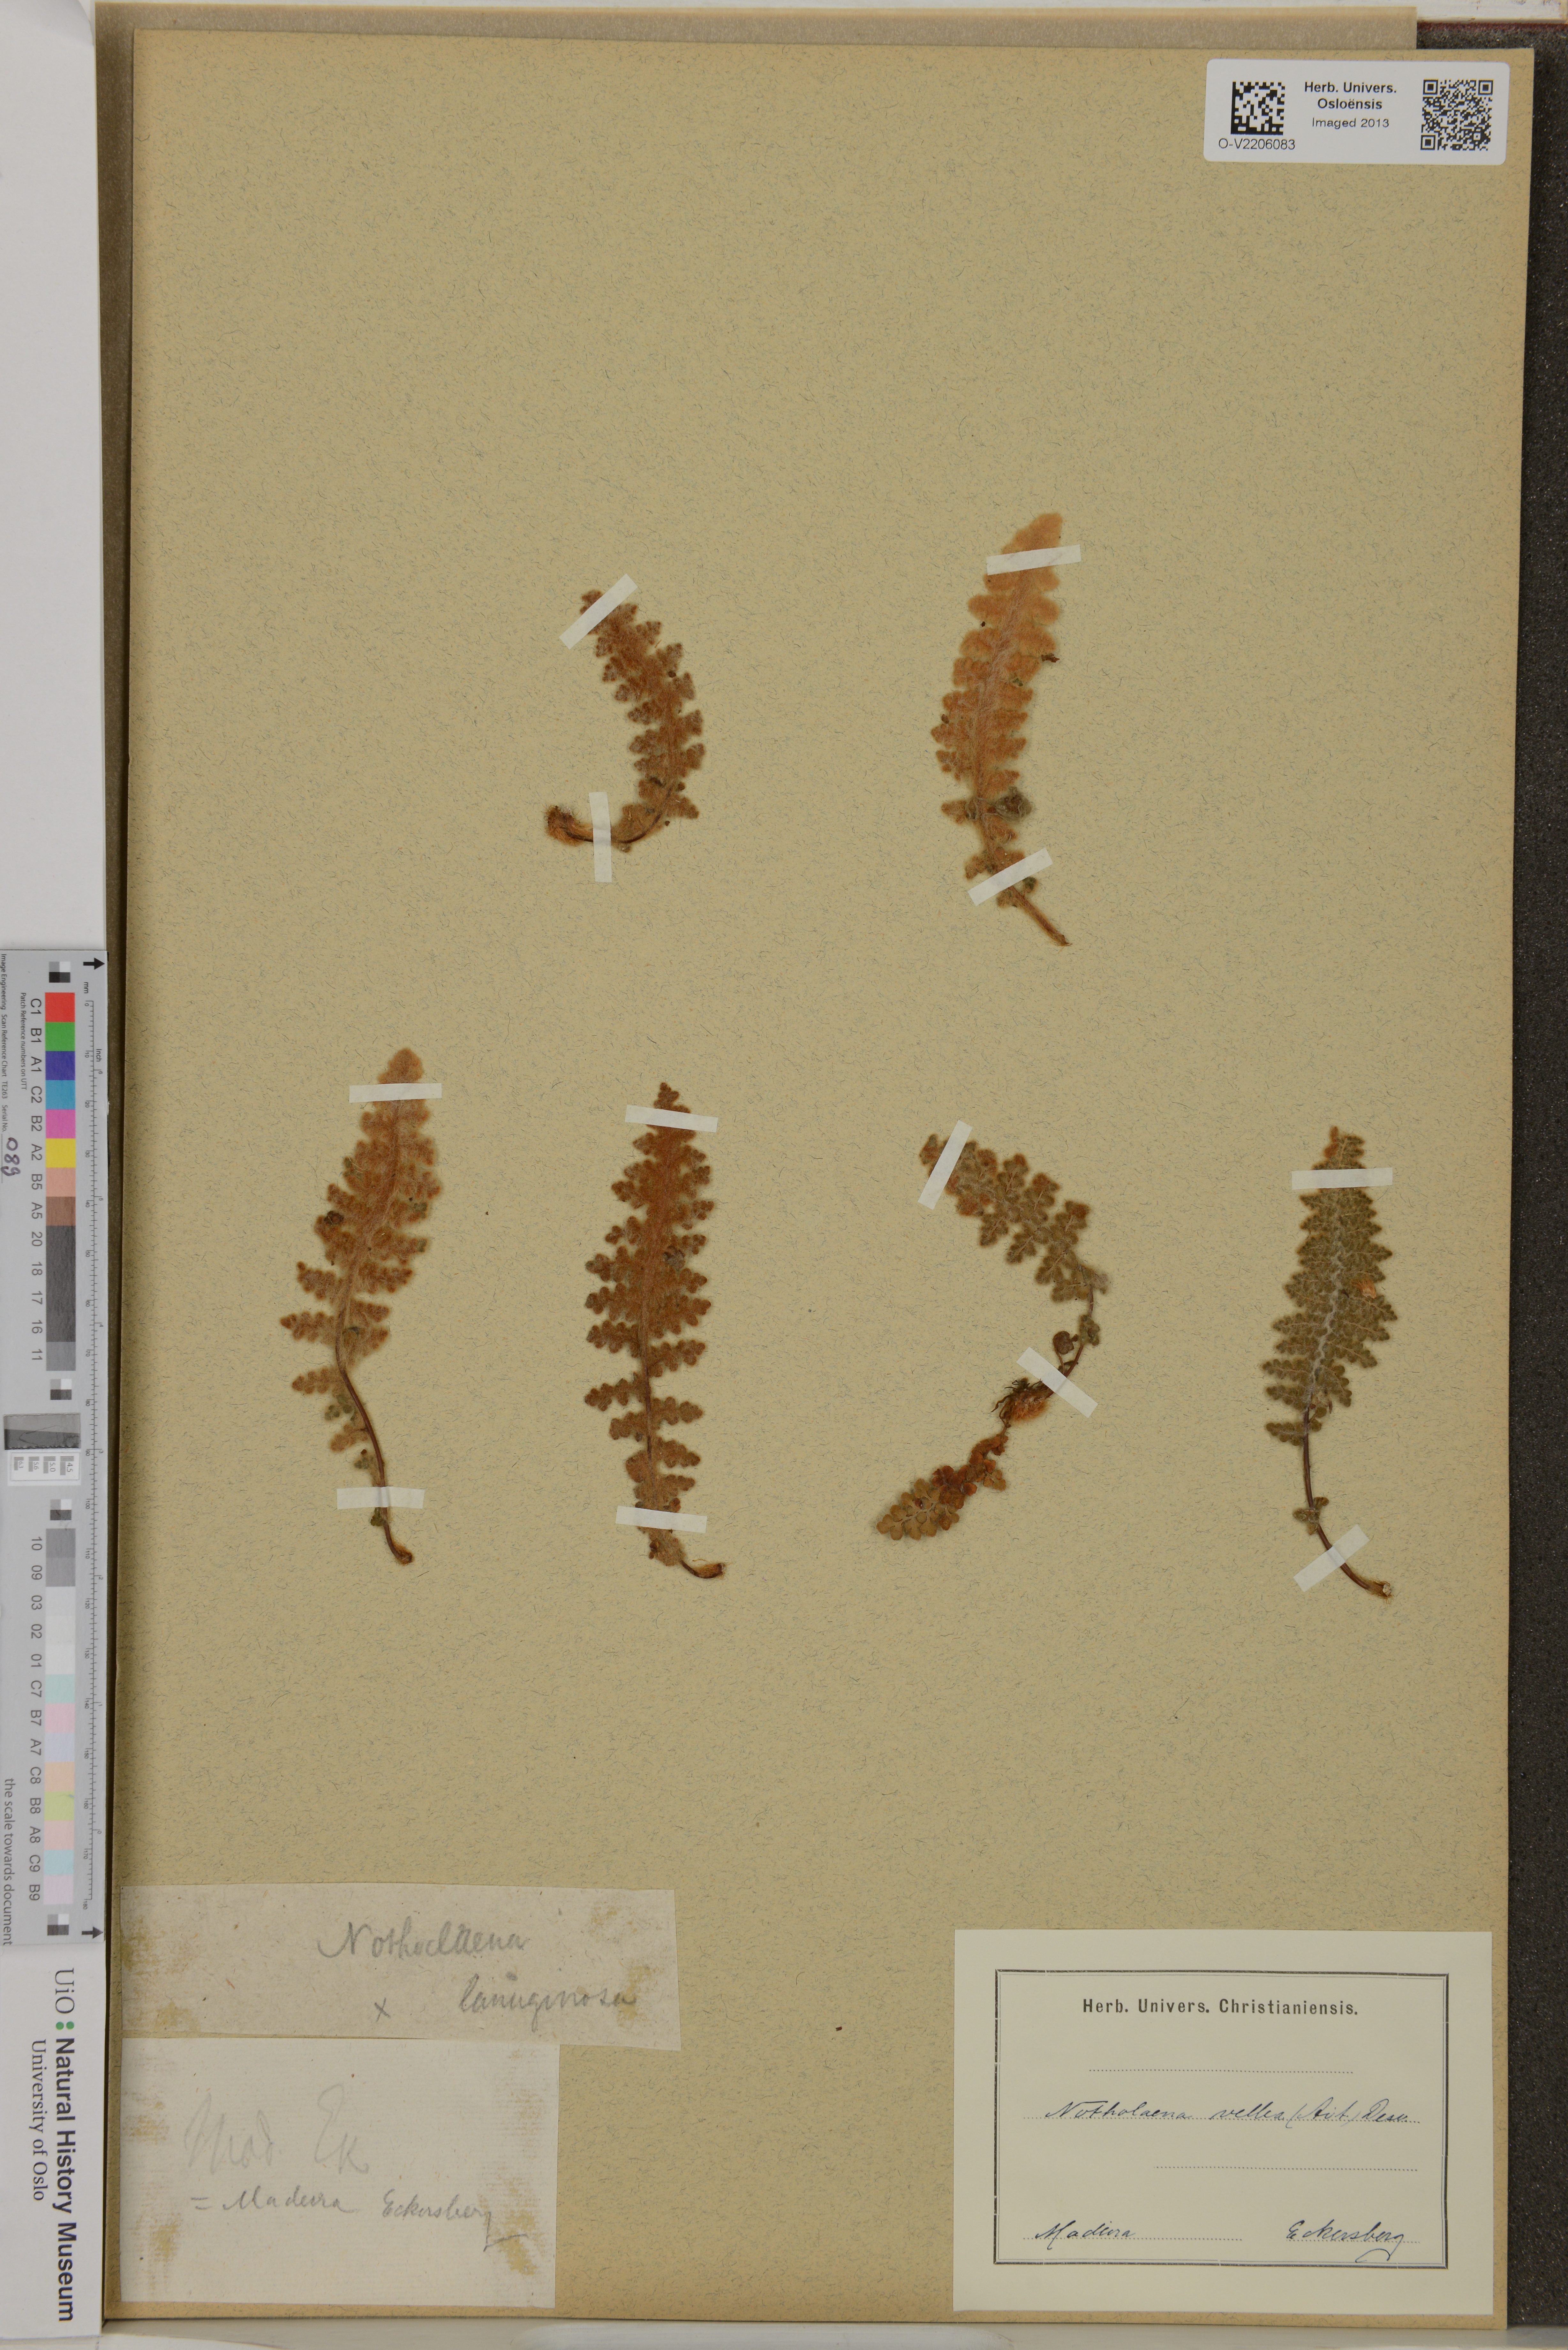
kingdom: Plantae
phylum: Tracheophyta
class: Polypodiopsida
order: Polypodiales
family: Pteridaceae
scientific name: Pteridaceae
